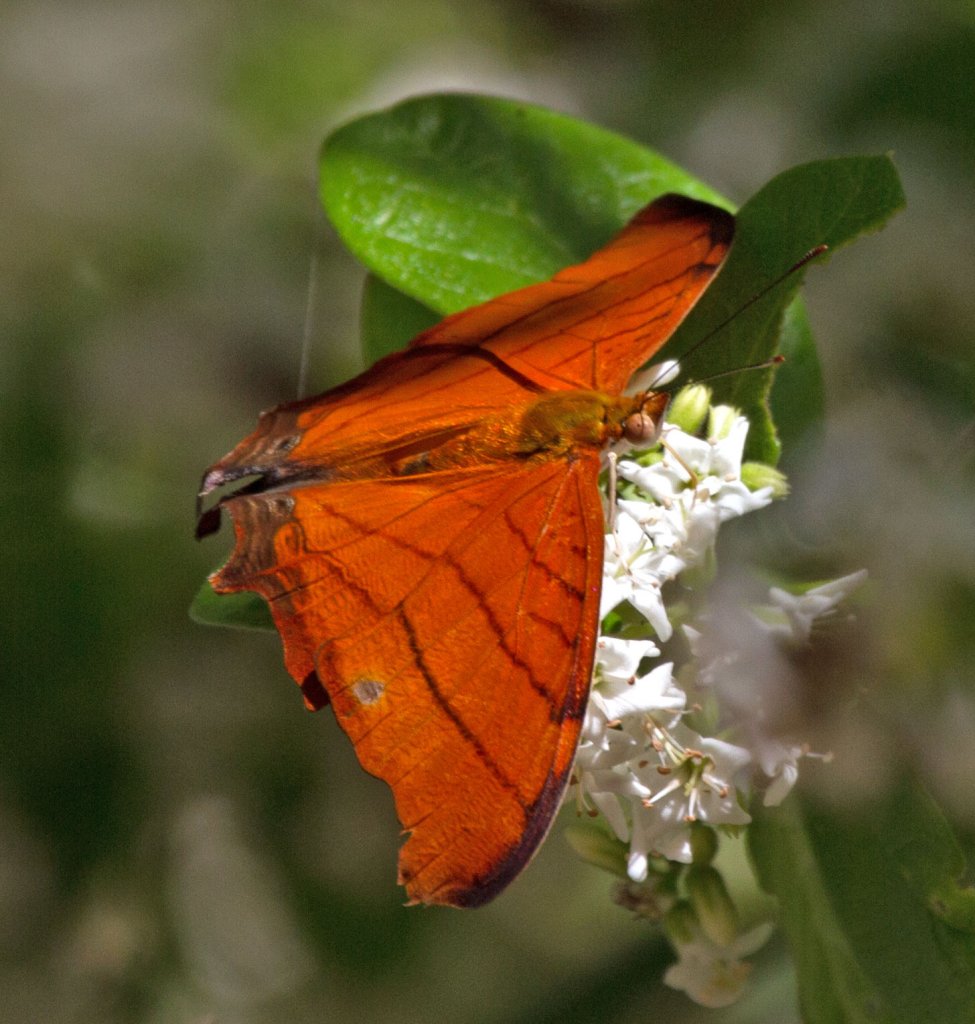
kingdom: Animalia
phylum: Arthropoda
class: Insecta
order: Lepidoptera
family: Nymphalidae
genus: Marpesia
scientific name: Marpesia petreus
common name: Ruddy Daggerwing
